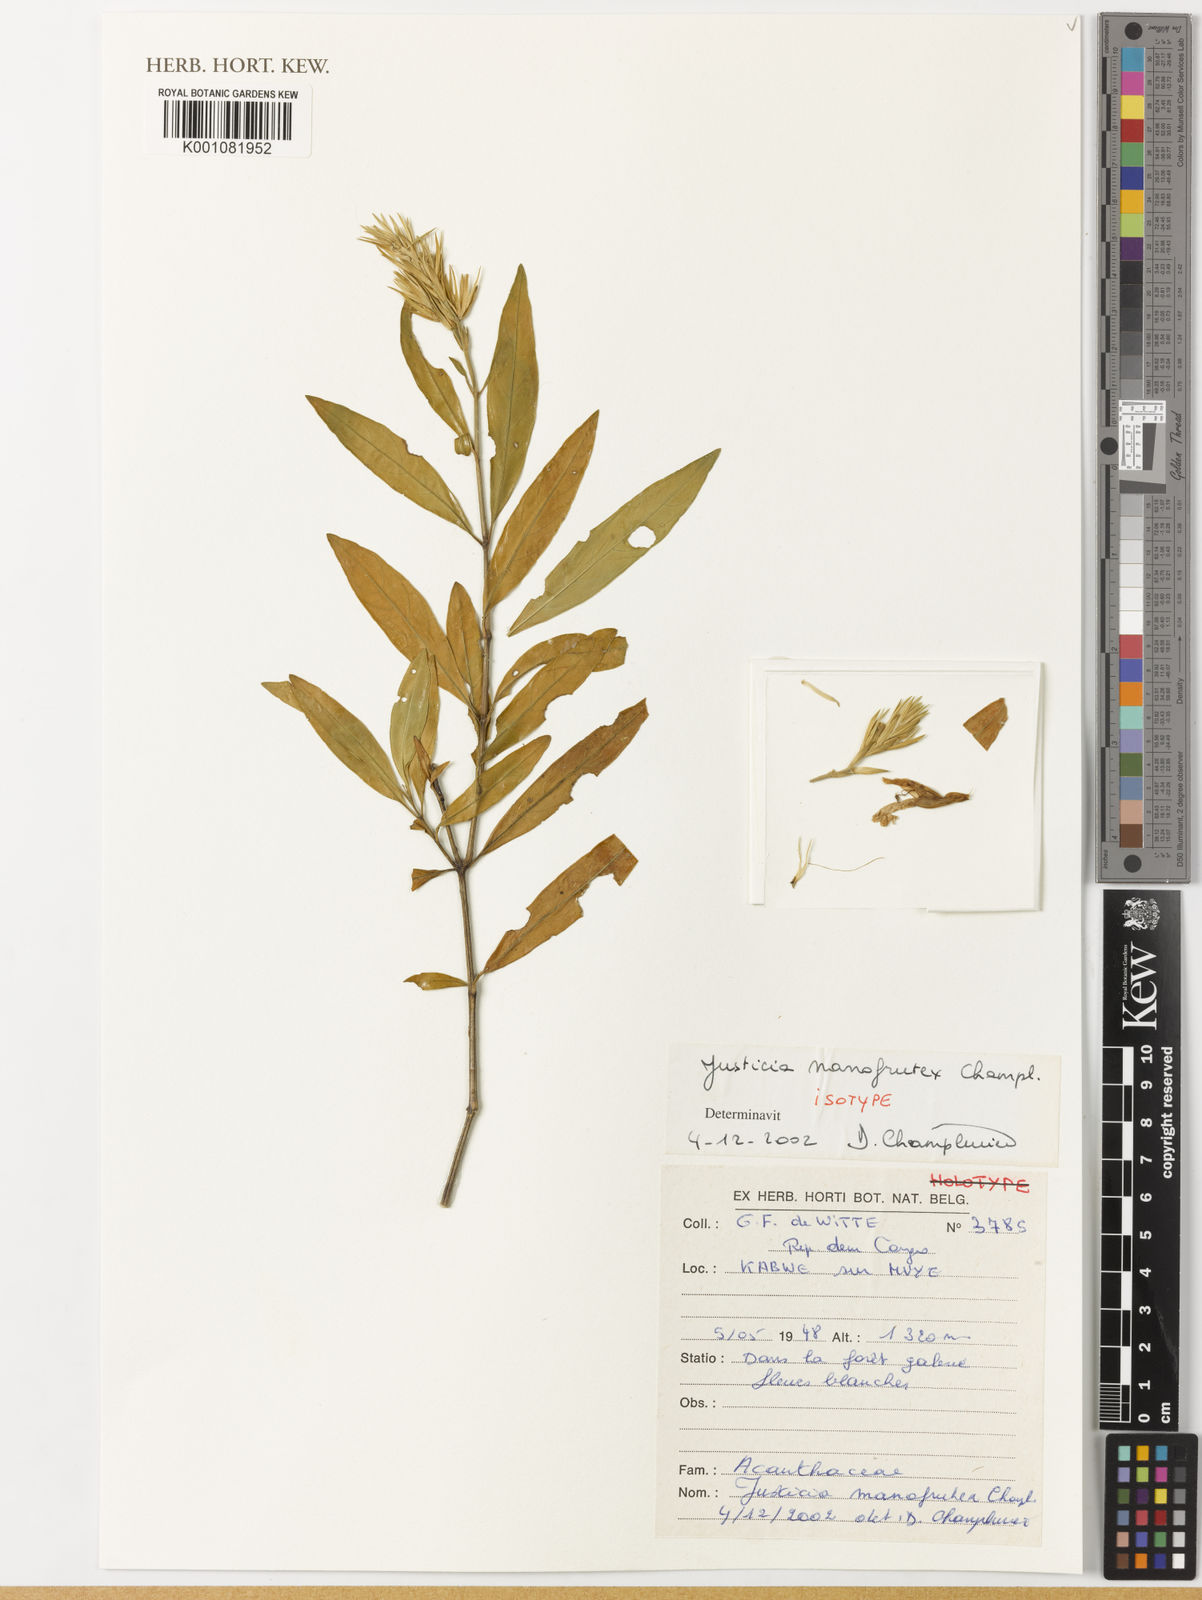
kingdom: Plantae
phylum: Tracheophyta
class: Magnoliopsida
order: Lamiales
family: Acanthaceae
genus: Justicia
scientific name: Justicia nanofrutex
